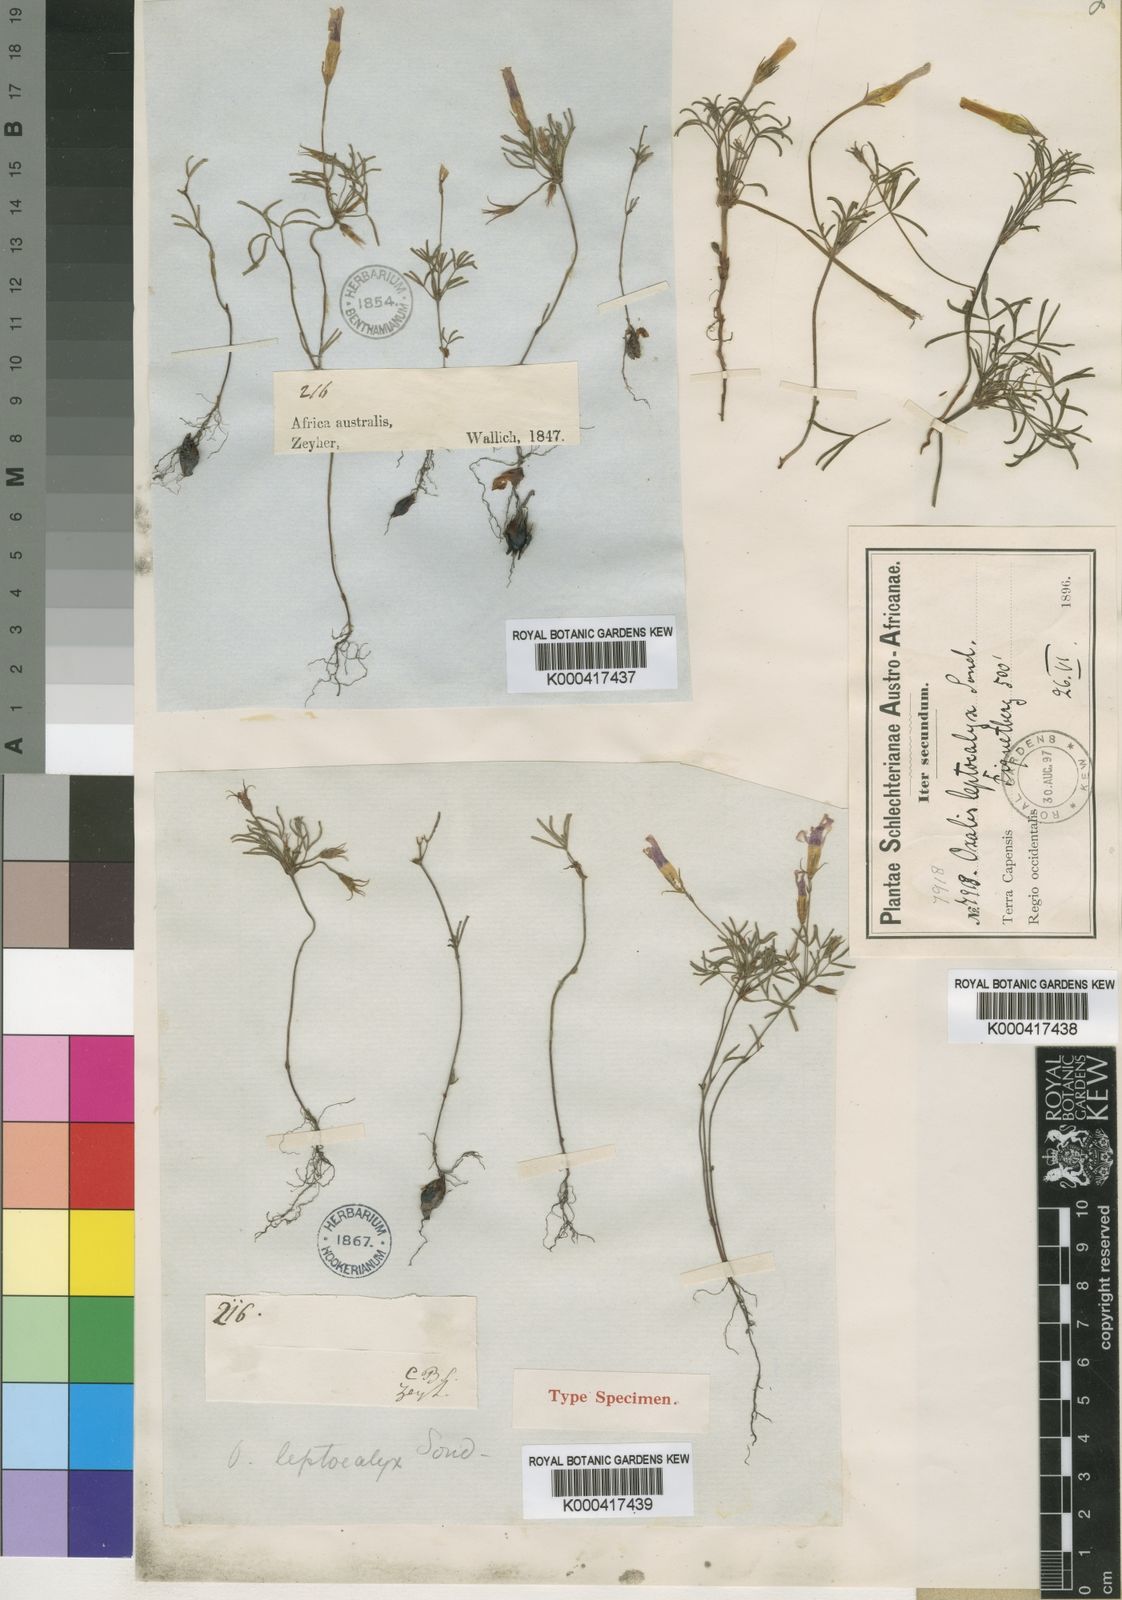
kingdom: Plantae
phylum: Tracheophyta
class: Magnoliopsida
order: Oxalidales
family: Oxalidaceae
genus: Oxalis
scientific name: Oxalis leptocalyx
